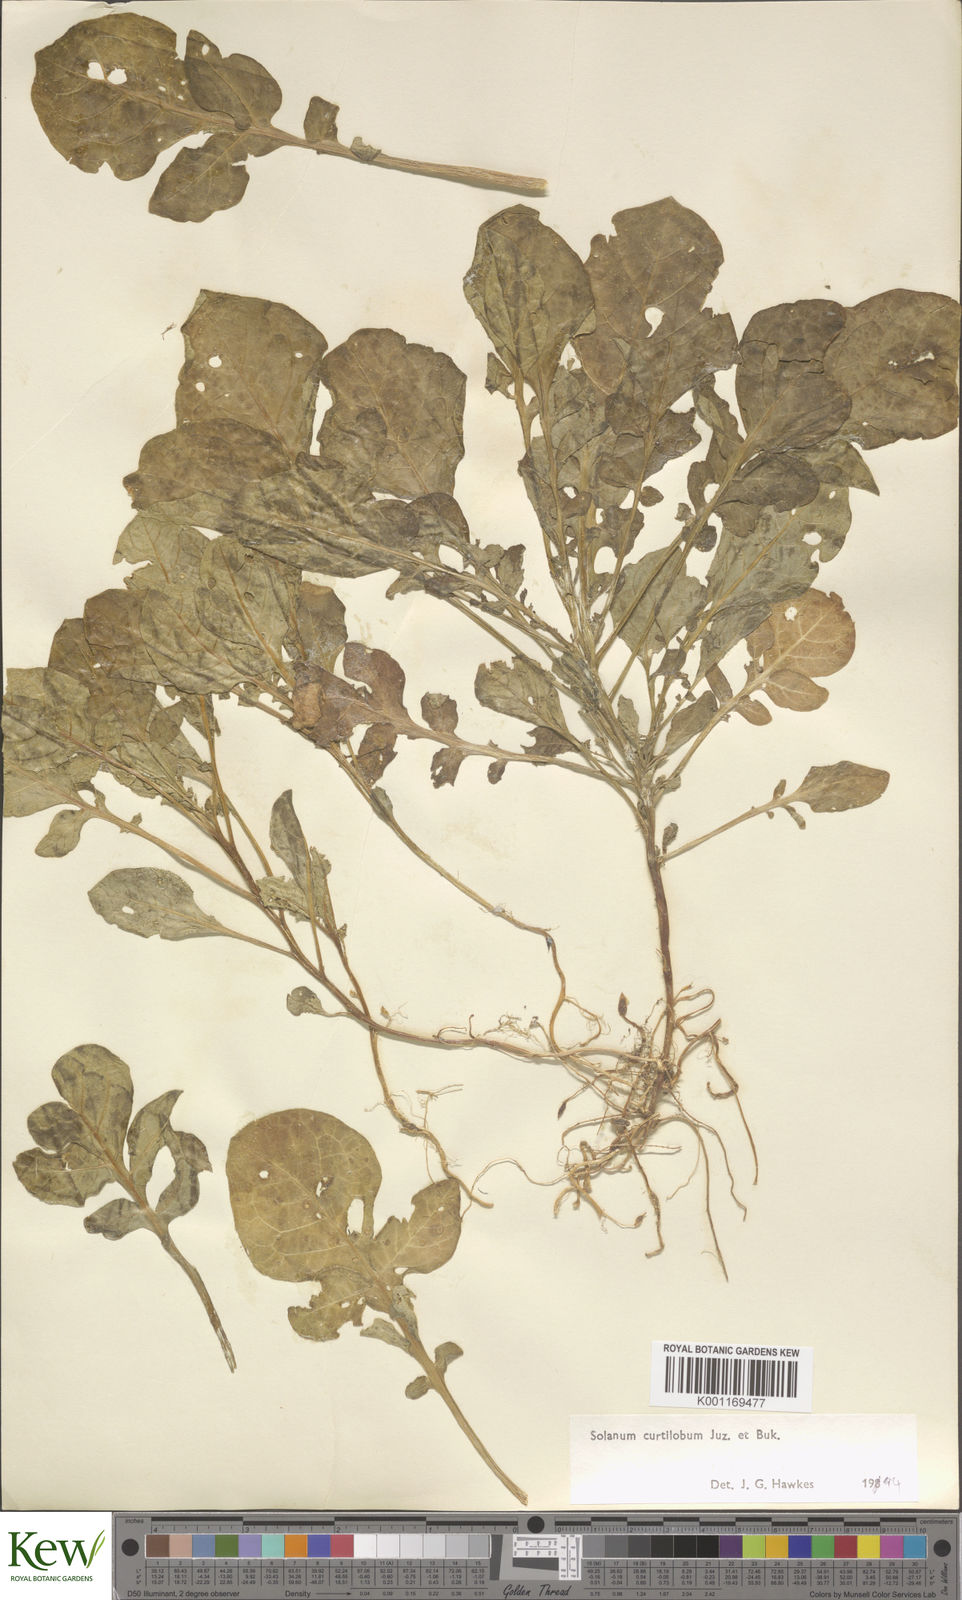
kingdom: Plantae
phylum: Tracheophyta
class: Magnoliopsida
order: Solanales
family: Solanaceae
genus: Solanum
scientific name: Solanum curtilobum
